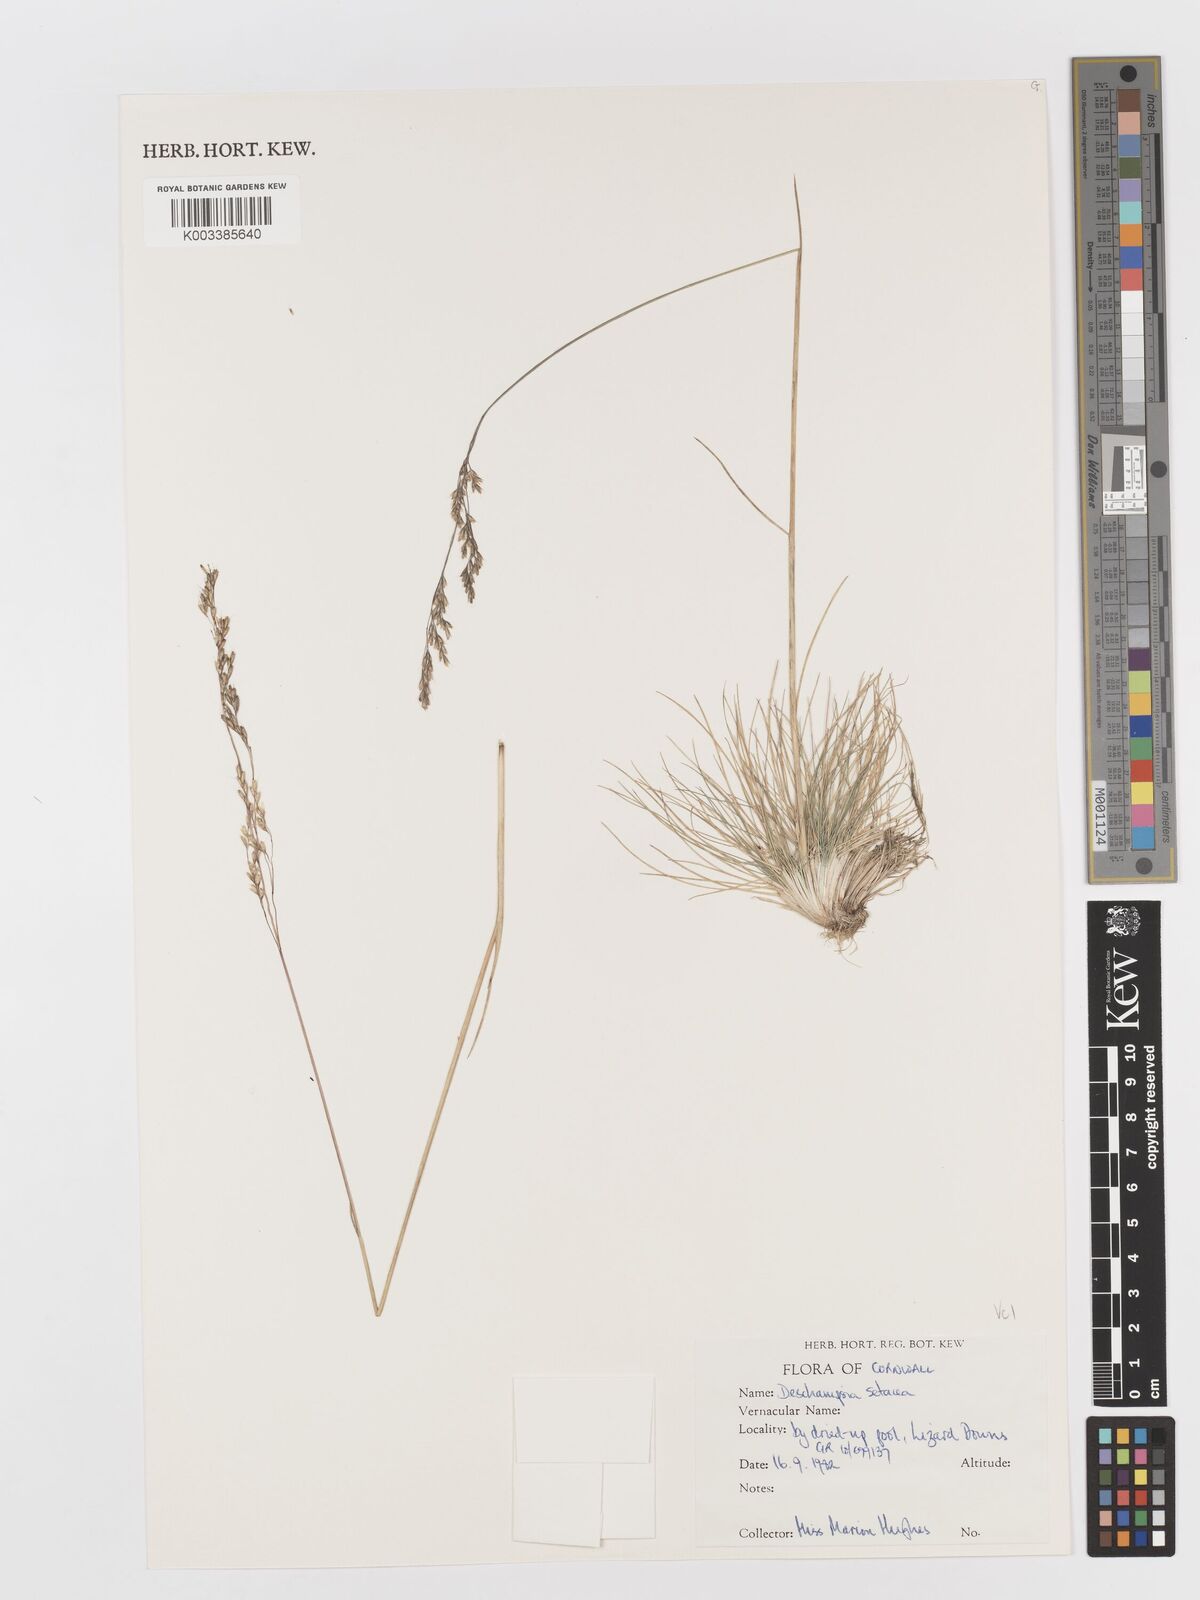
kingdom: Plantae
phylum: Tracheophyta
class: Liliopsida
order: Poales
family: Poaceae
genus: Deschampsia
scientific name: Deschampsia setacea
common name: Bog hair-grass
